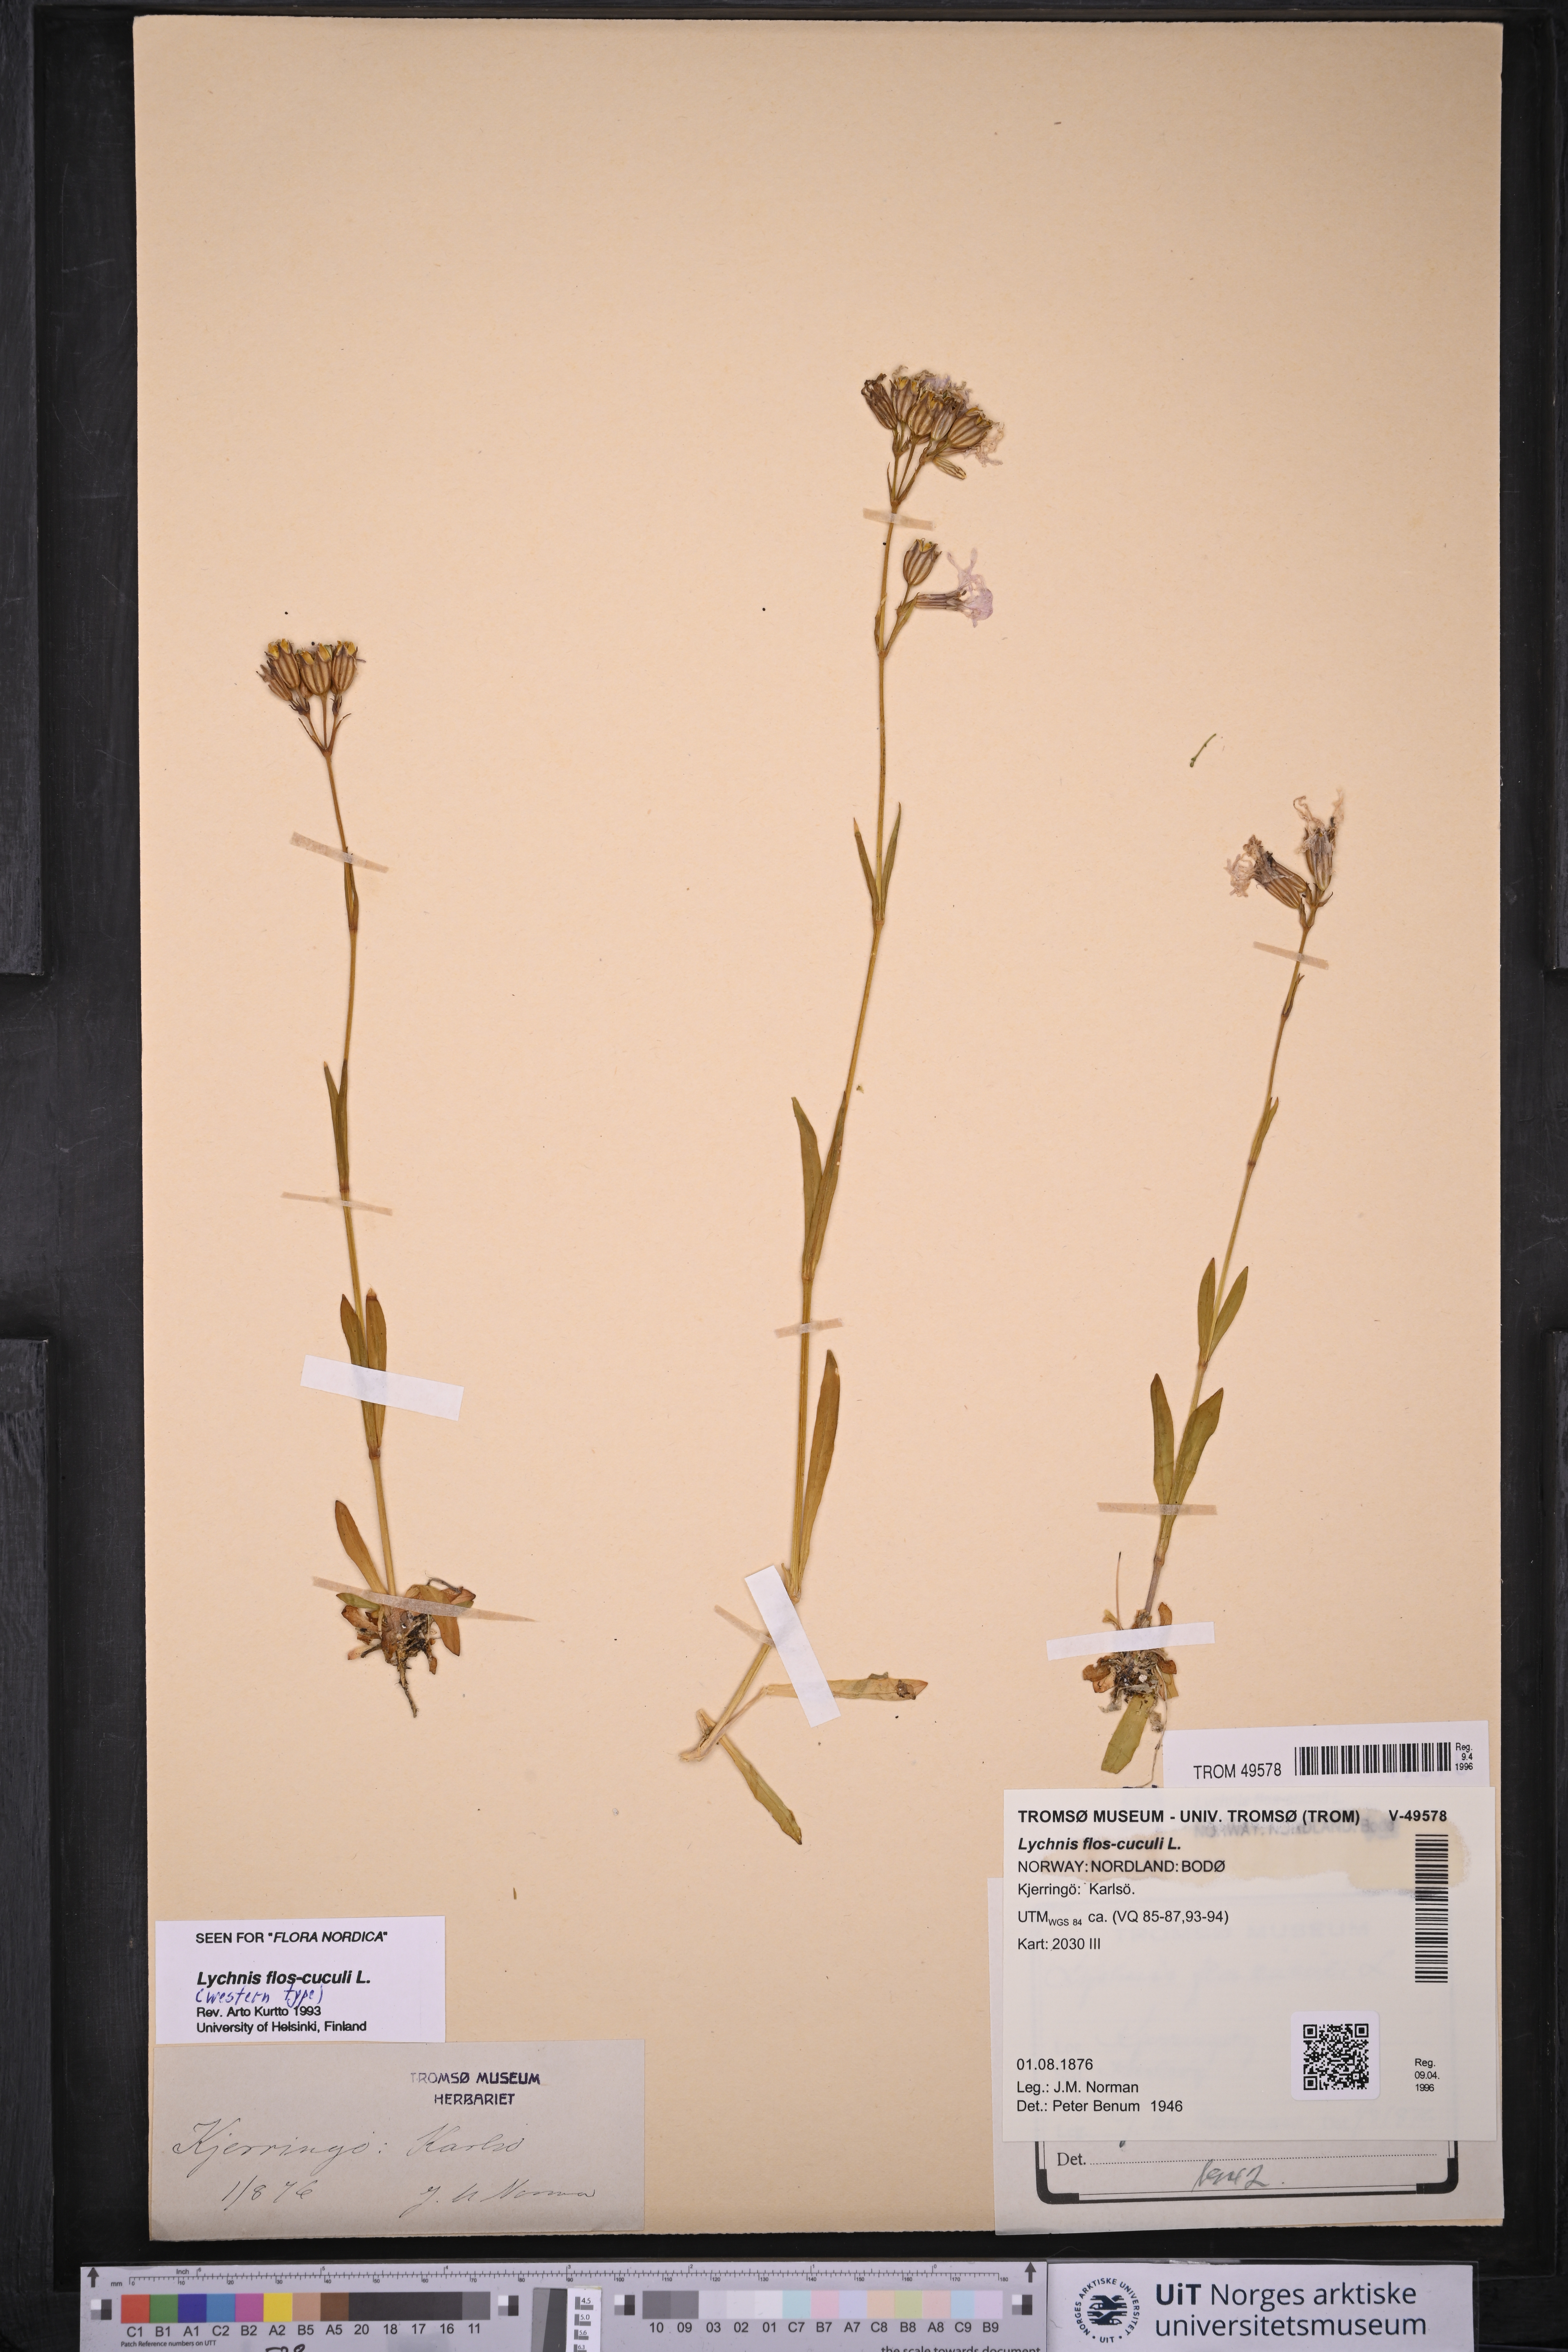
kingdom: Plantae
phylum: Tracheophyta
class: Magnoliopsida
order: Caryophyllales
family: Caryophyllaceae
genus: Silene
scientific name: Silene flos-cuculi
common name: Ragged-robin
